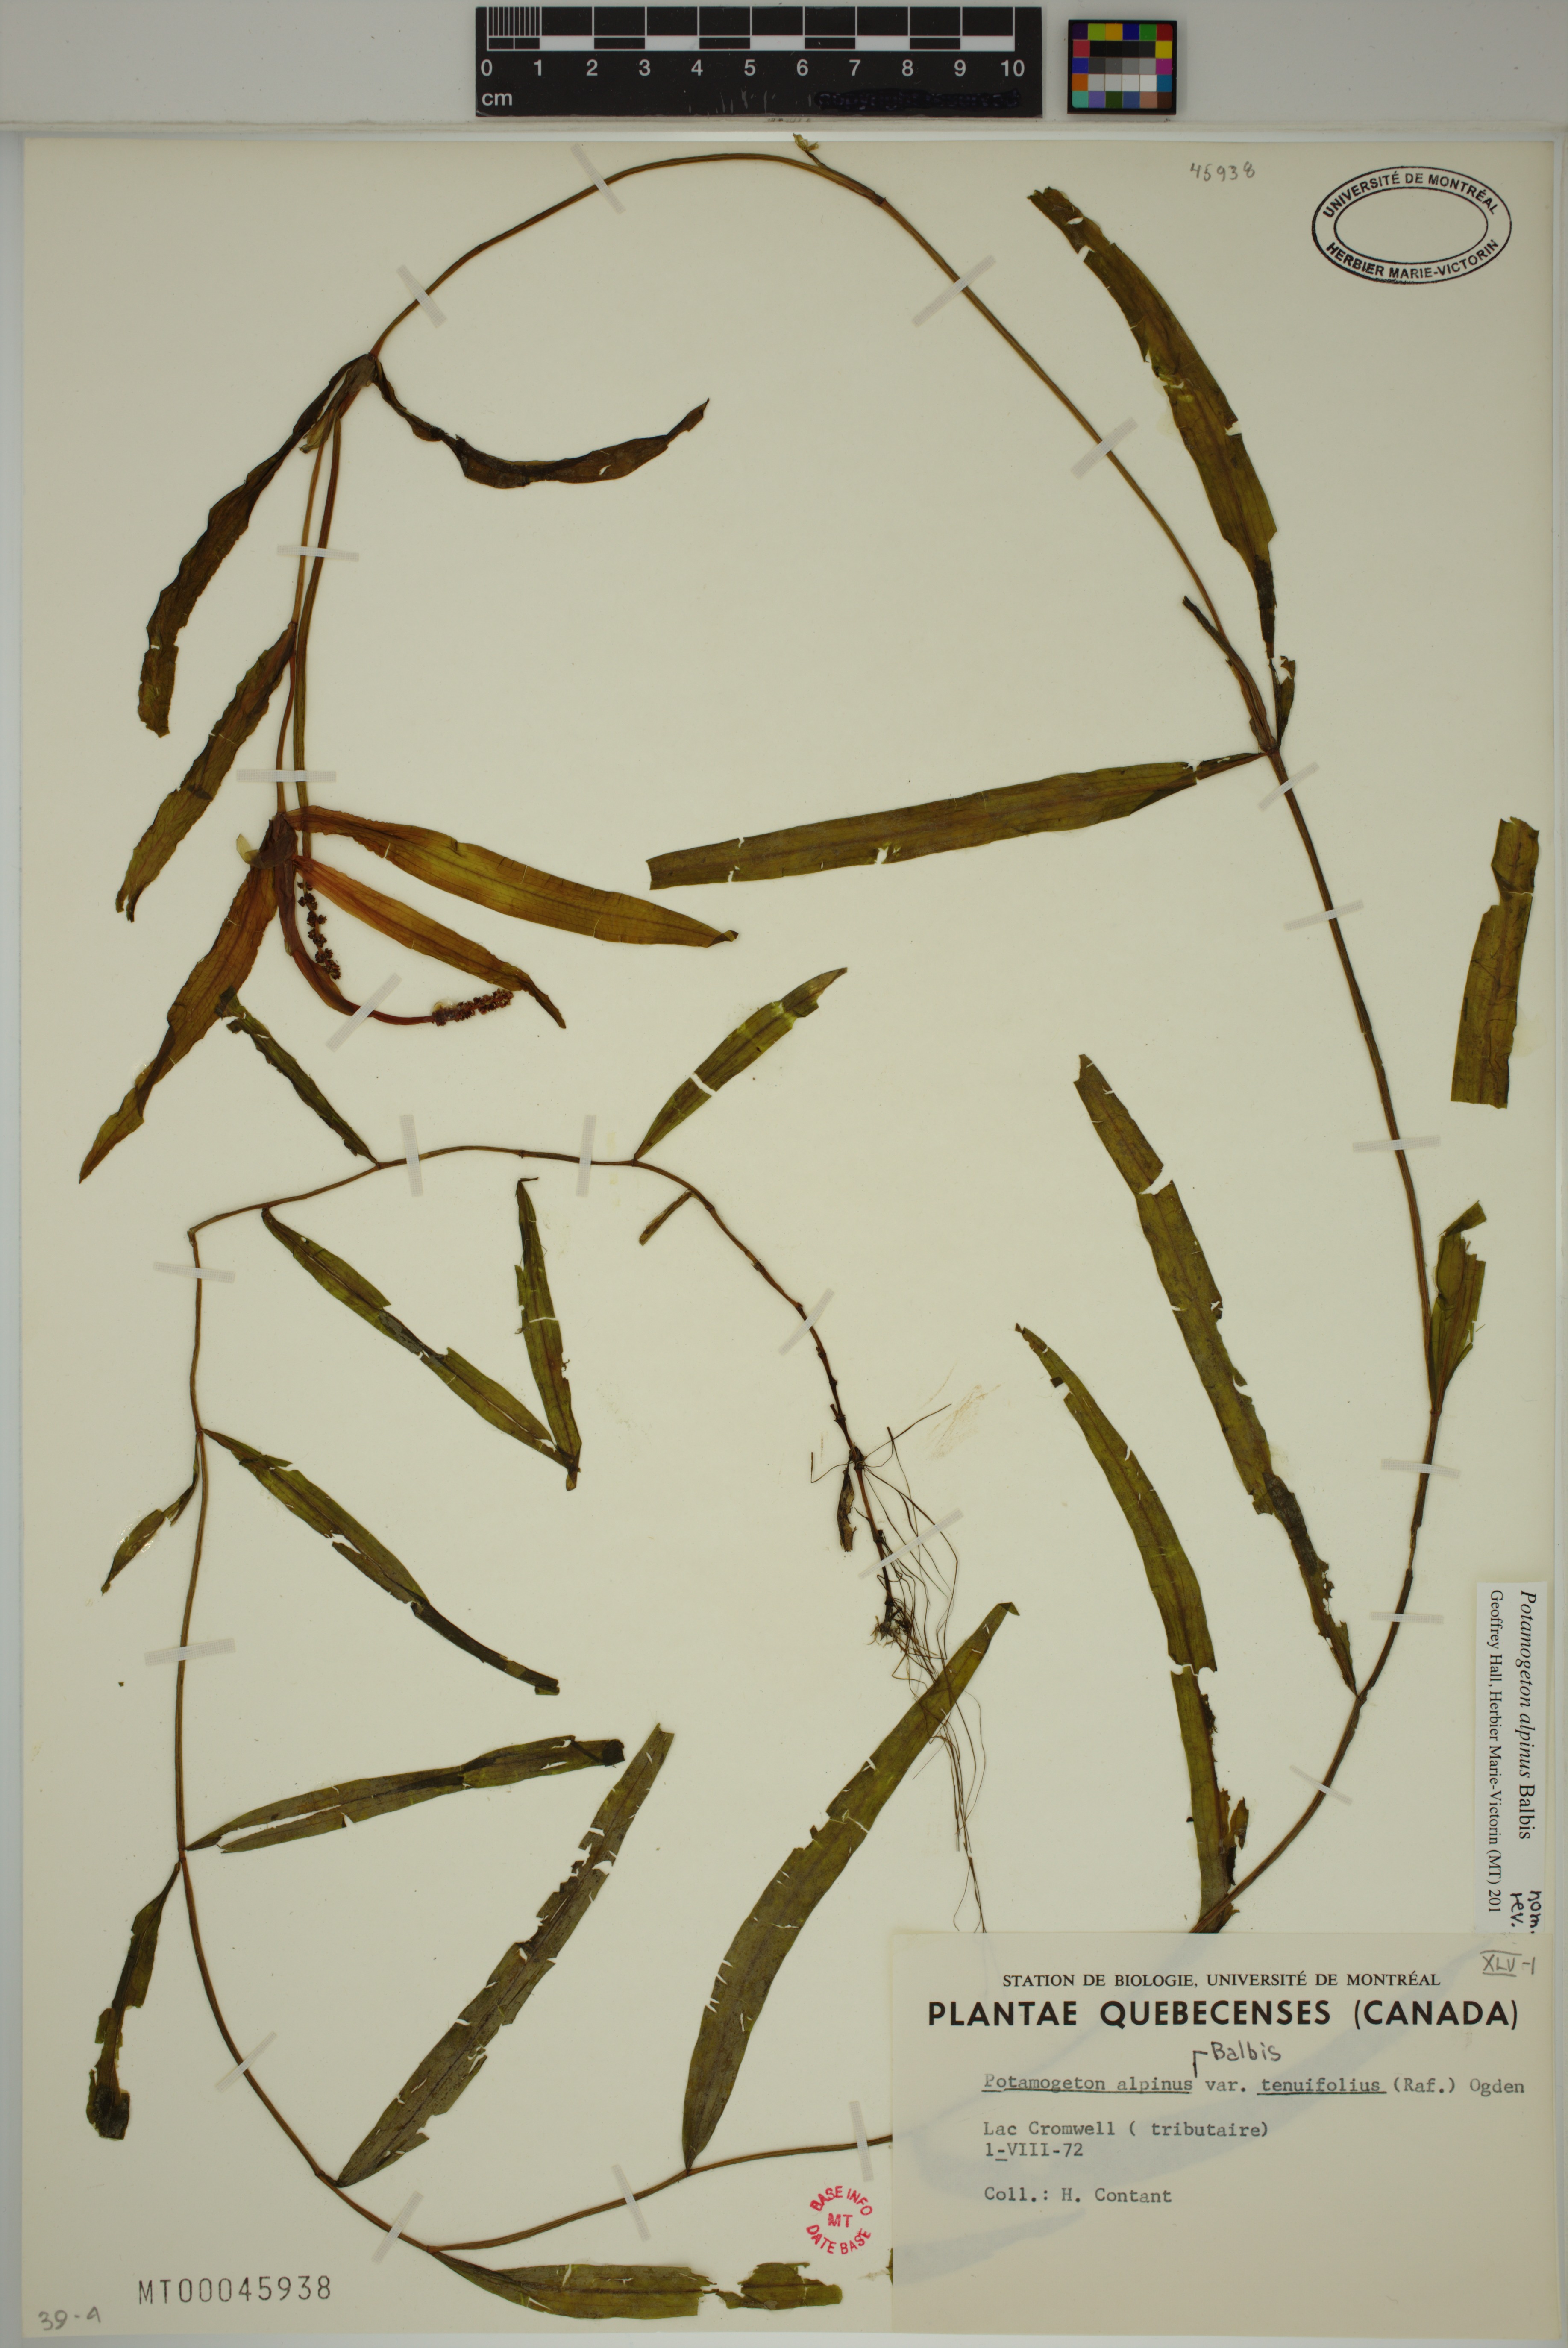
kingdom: Plantae
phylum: Tracheophyta
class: Liliopsida
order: Alismatales
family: Potamogetonaceae
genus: Potamogeton
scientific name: Potamogeton alpinus
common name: Red pondweed
